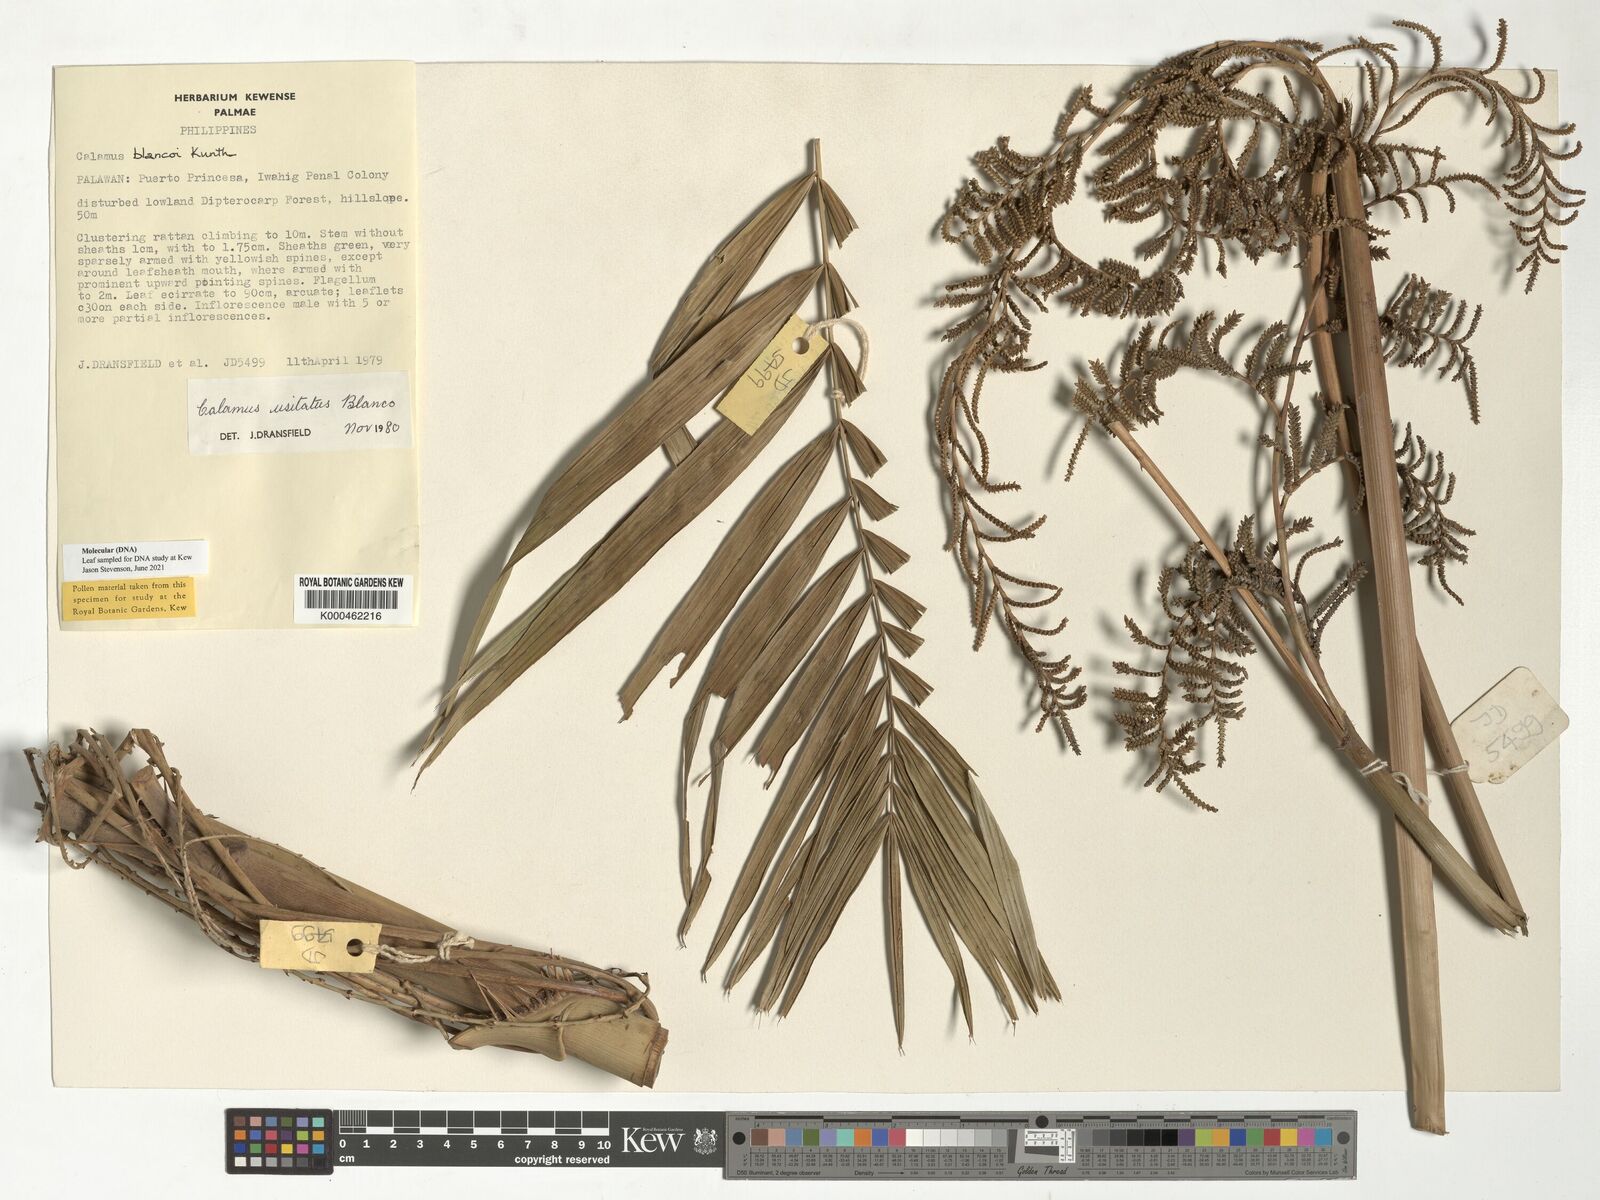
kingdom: Plantae
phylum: Tracheophyta
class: Liliopsida
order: Arecales
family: Arecaceae
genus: Calamus
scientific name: Calamus usitatus
